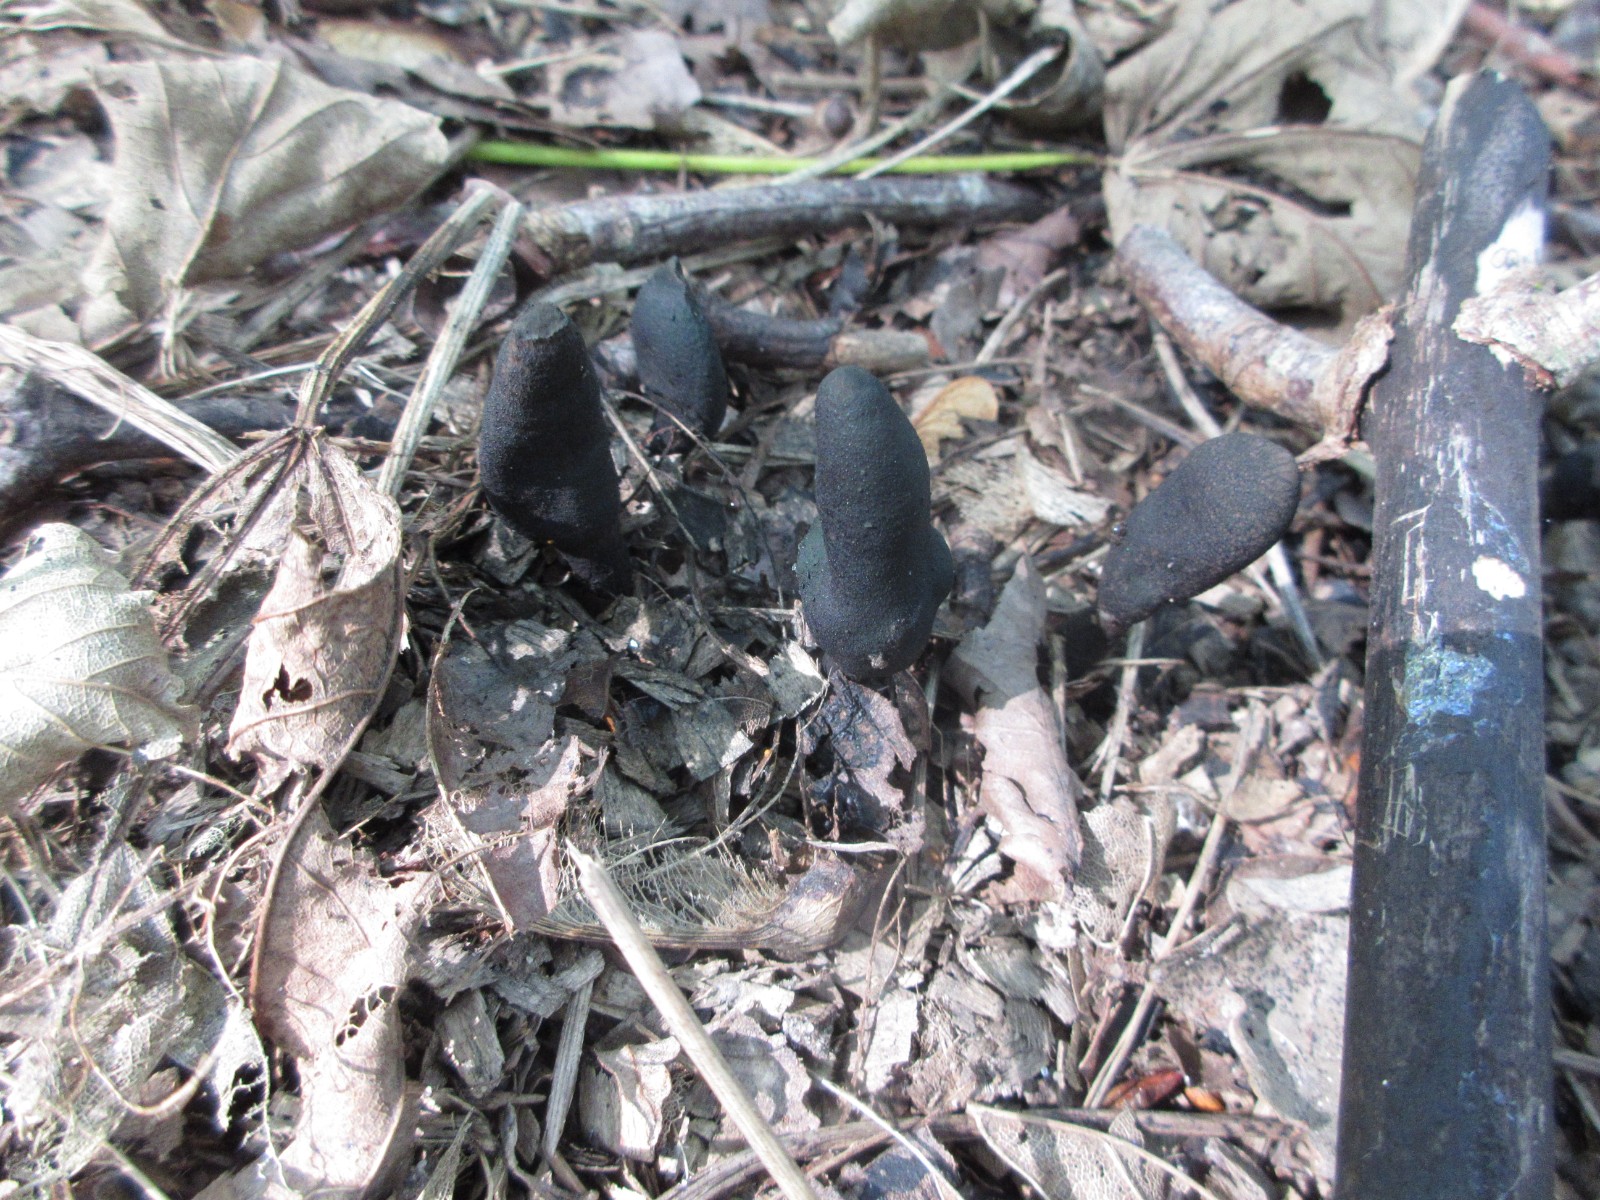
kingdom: Fungi
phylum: Ascomycota
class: Sordariomycetes
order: Xylariales
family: Xylariaceae
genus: Xylaria
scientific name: Xylaria longipes
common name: slank stødsvamp
